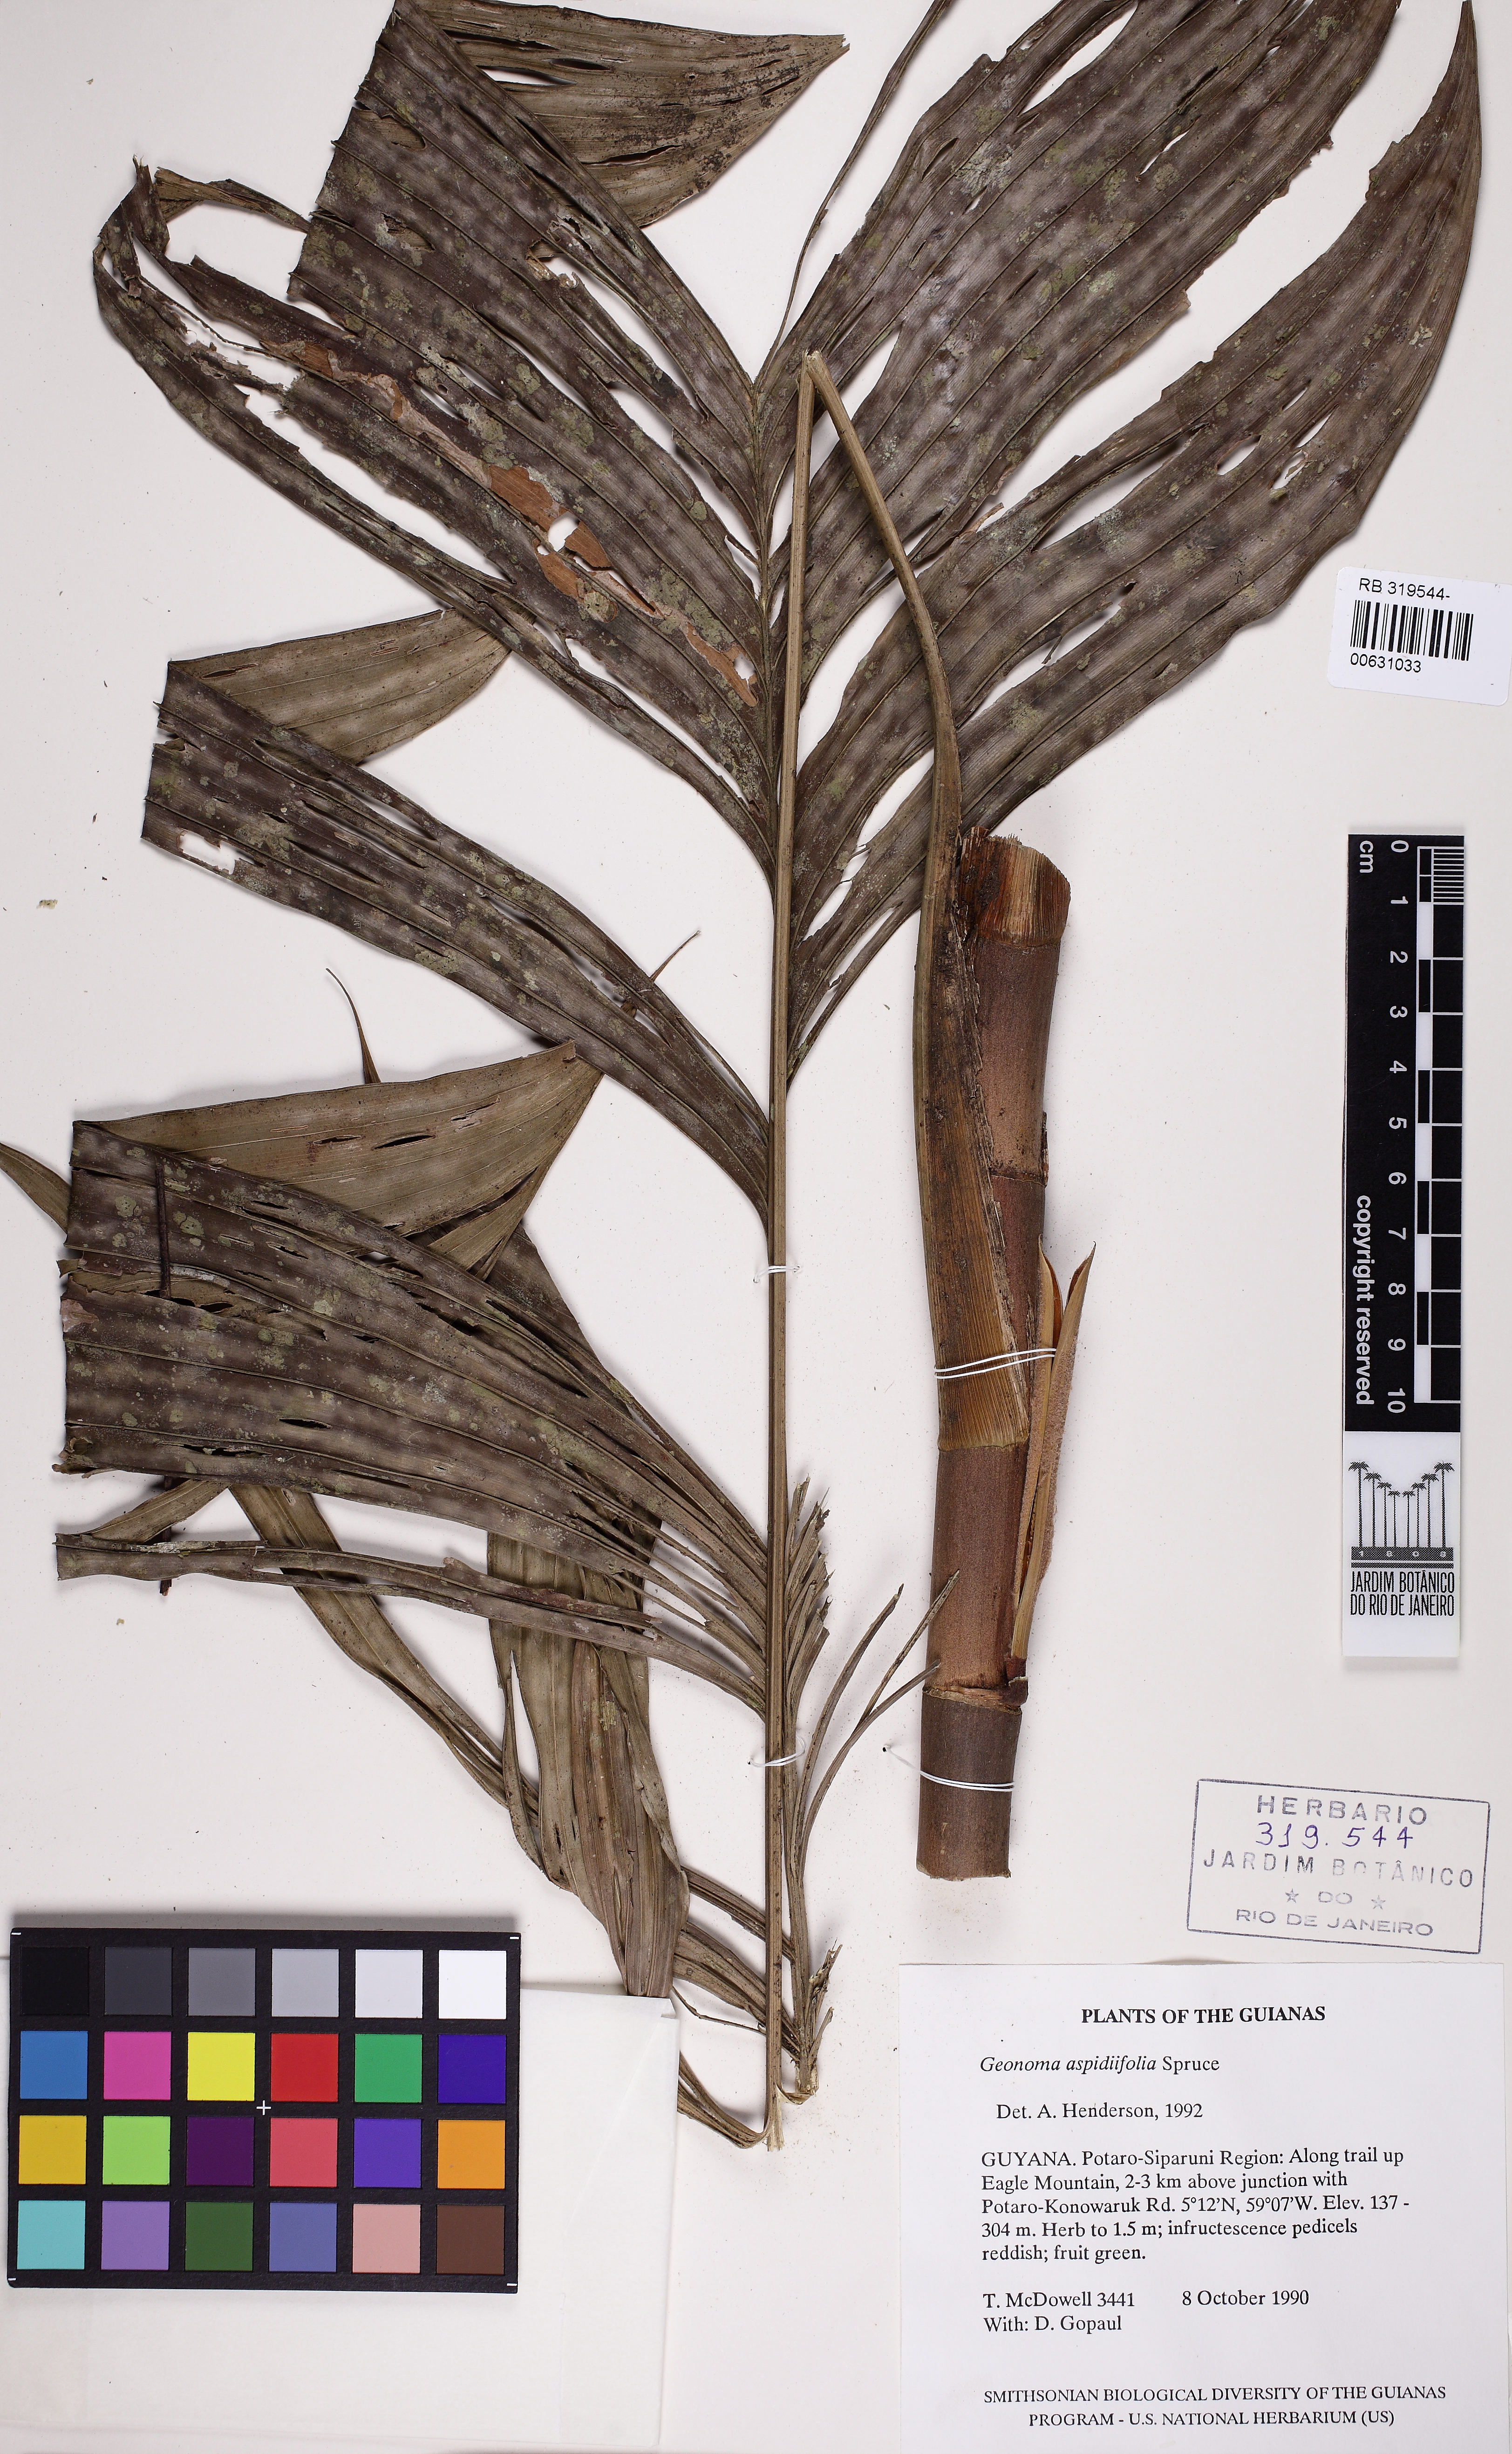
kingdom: Plantae
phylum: Tracheophyta
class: Liliopsida
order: Arecales
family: Arecaceae
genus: Geonoma
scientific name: Geonoma aspidiifolia
